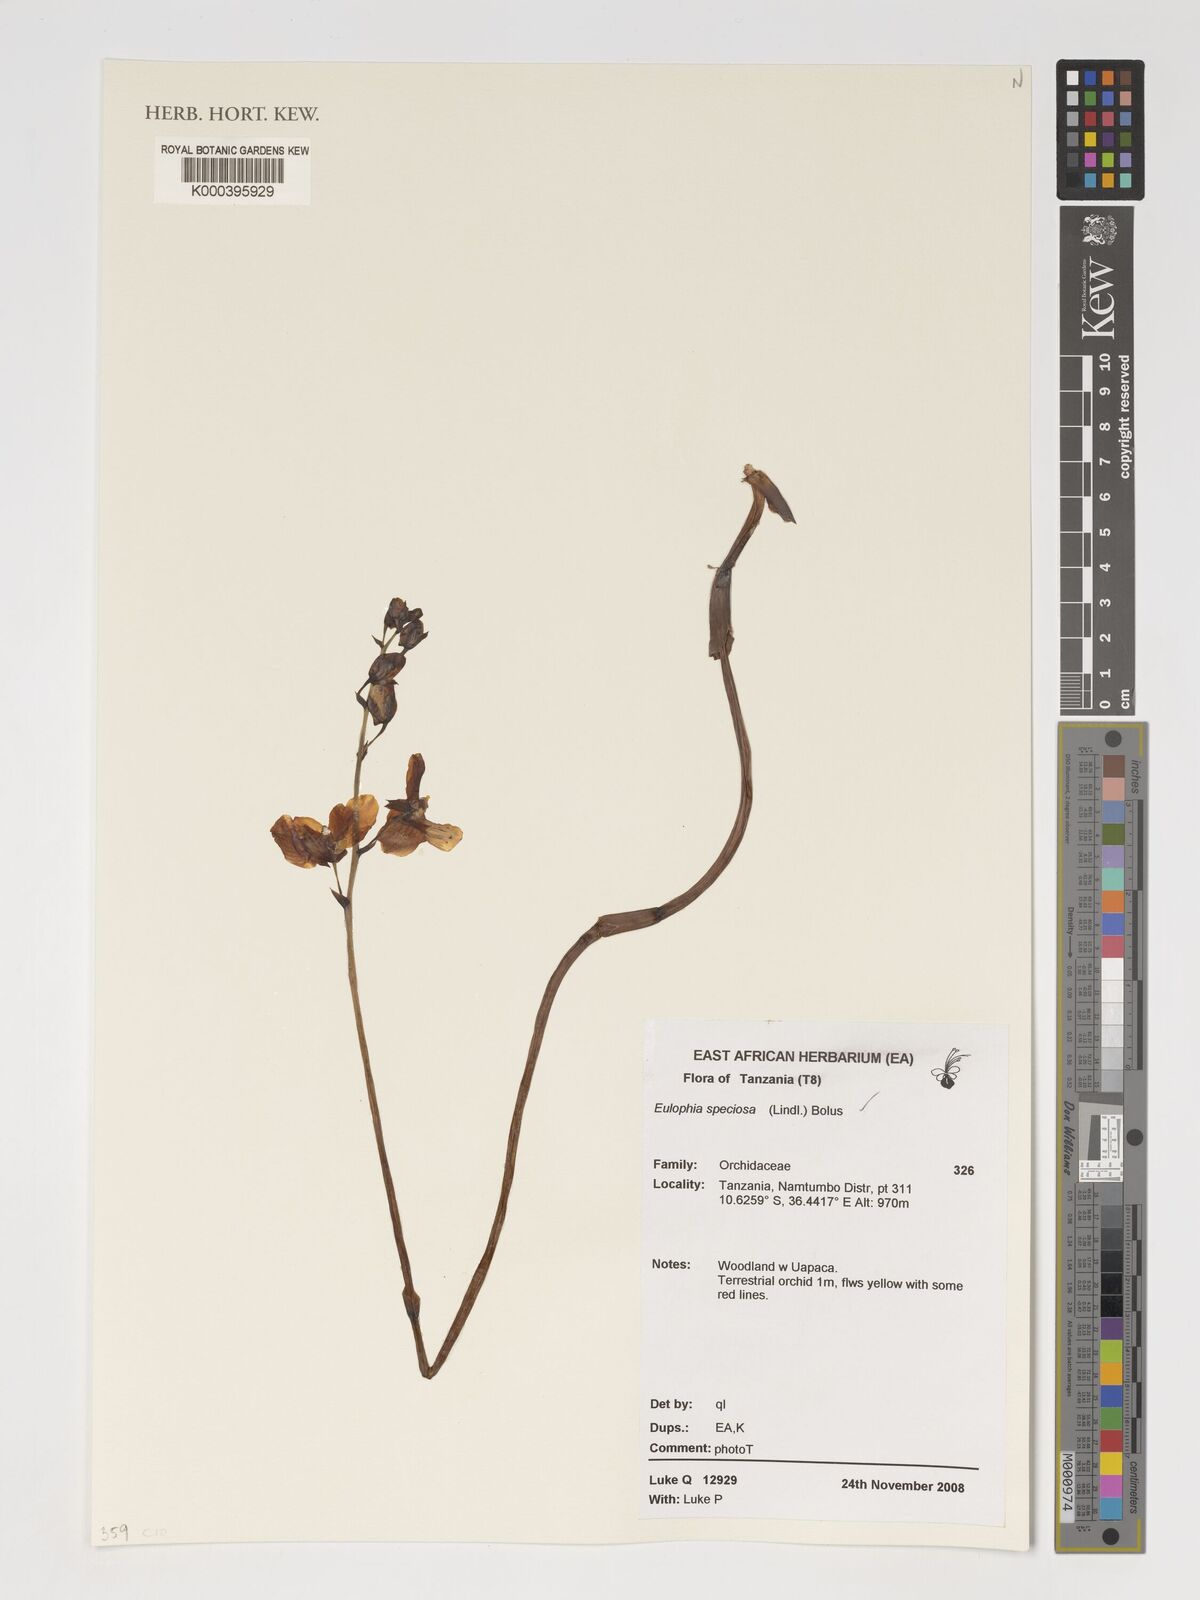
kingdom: Plantae
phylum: Tracheophyta
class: Liliopsida
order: Asparagales
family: Orchidaceae
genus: Eulophia
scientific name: Eulophia speciosa
